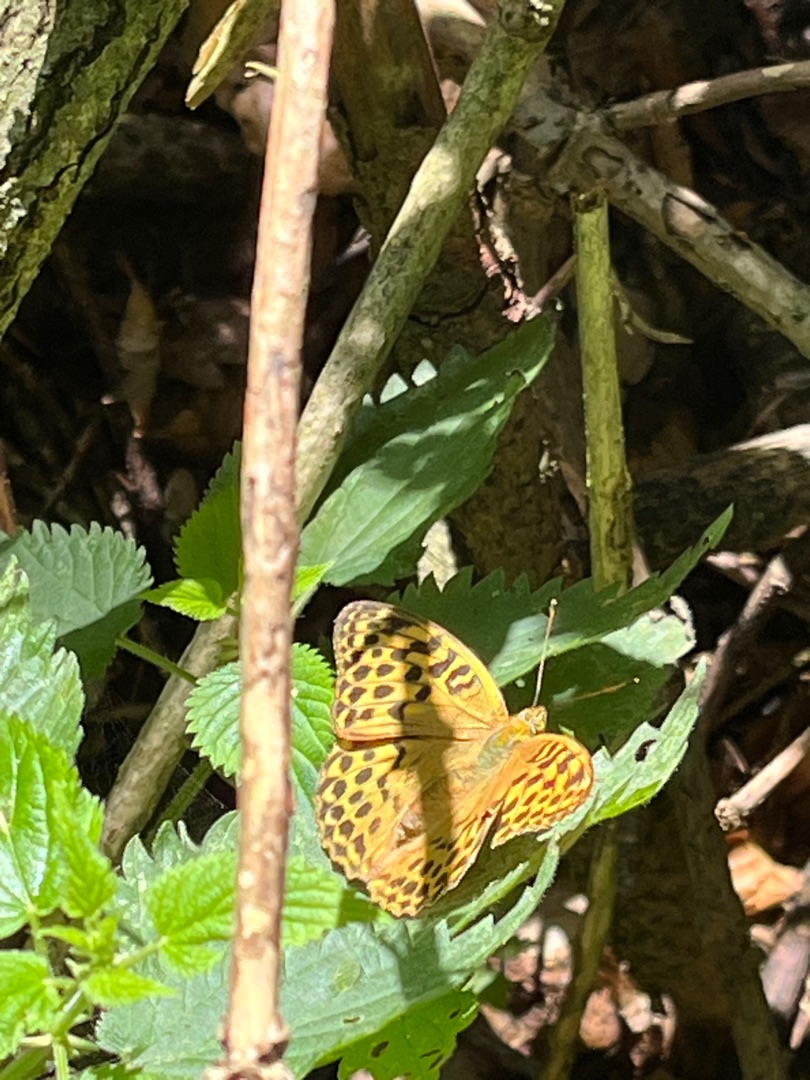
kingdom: Animalia
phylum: Arthropoda
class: Insecta
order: Lepidoptera
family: Nymphalidae
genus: Argynnis
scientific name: Argynnis paphia
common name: Kejserkåbe
